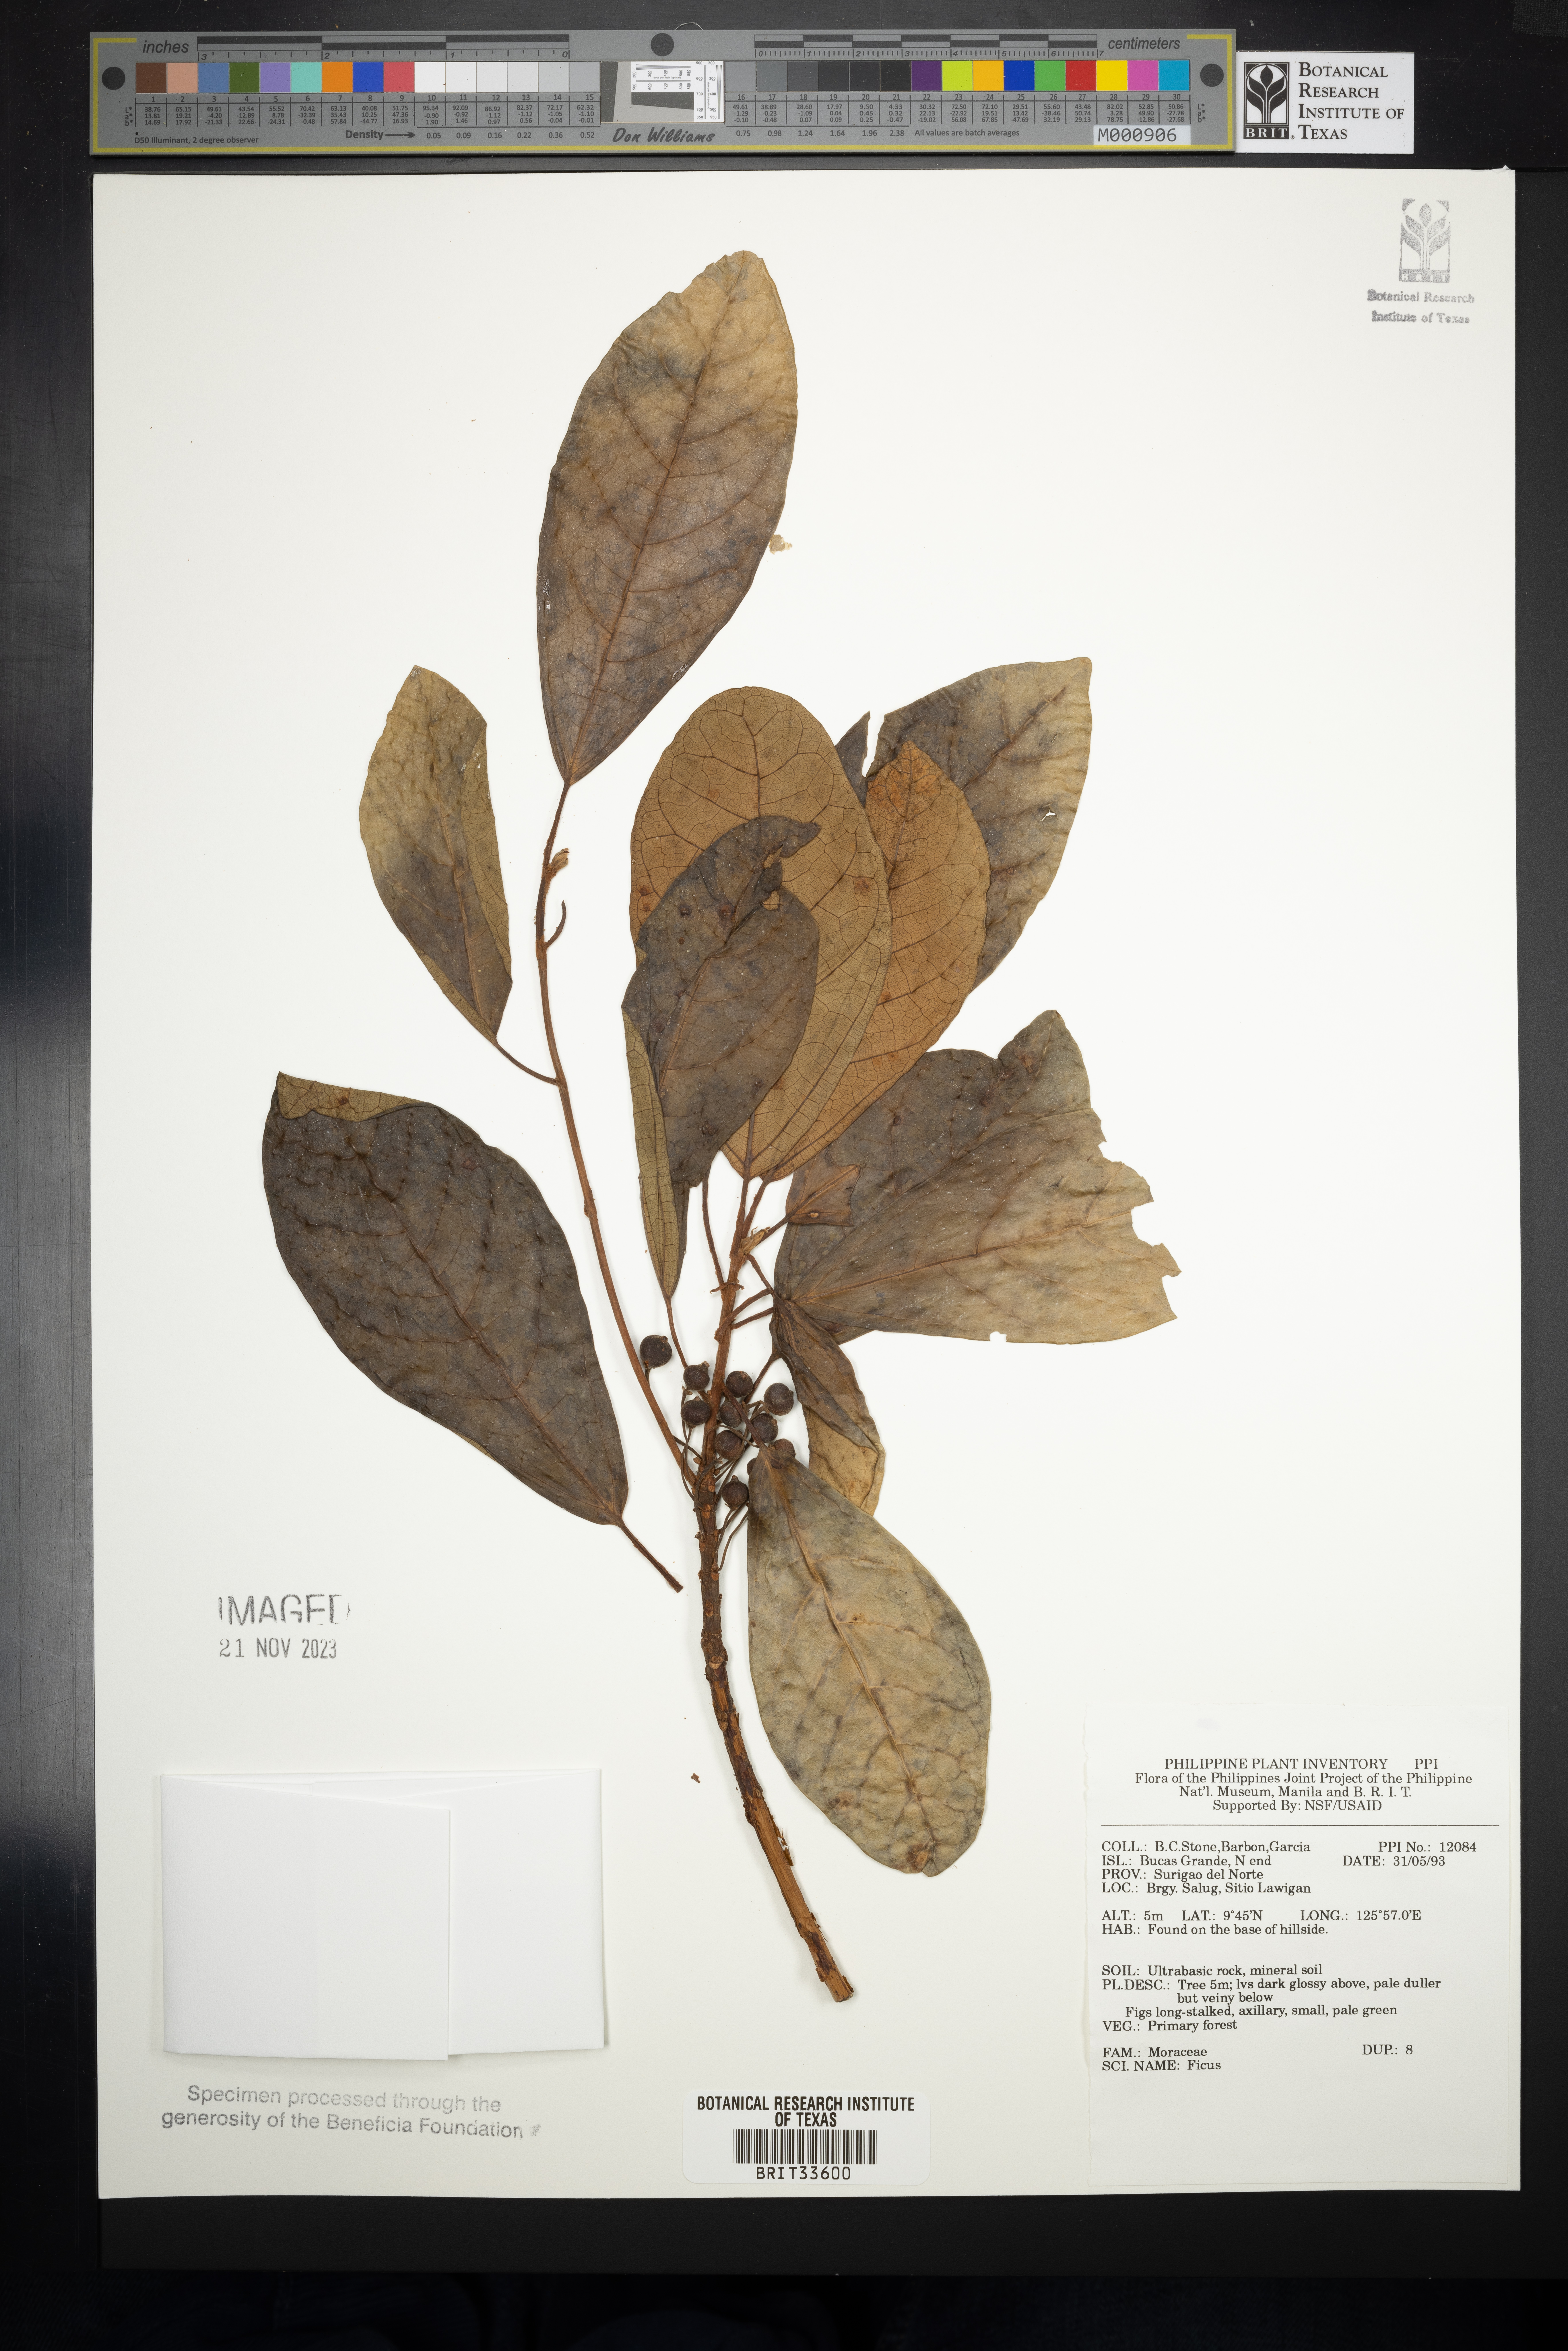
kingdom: Plantae
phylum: Tracheophyta
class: Magnoliopsida
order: Rosales
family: Moraceae
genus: Ficus
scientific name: Ficus
